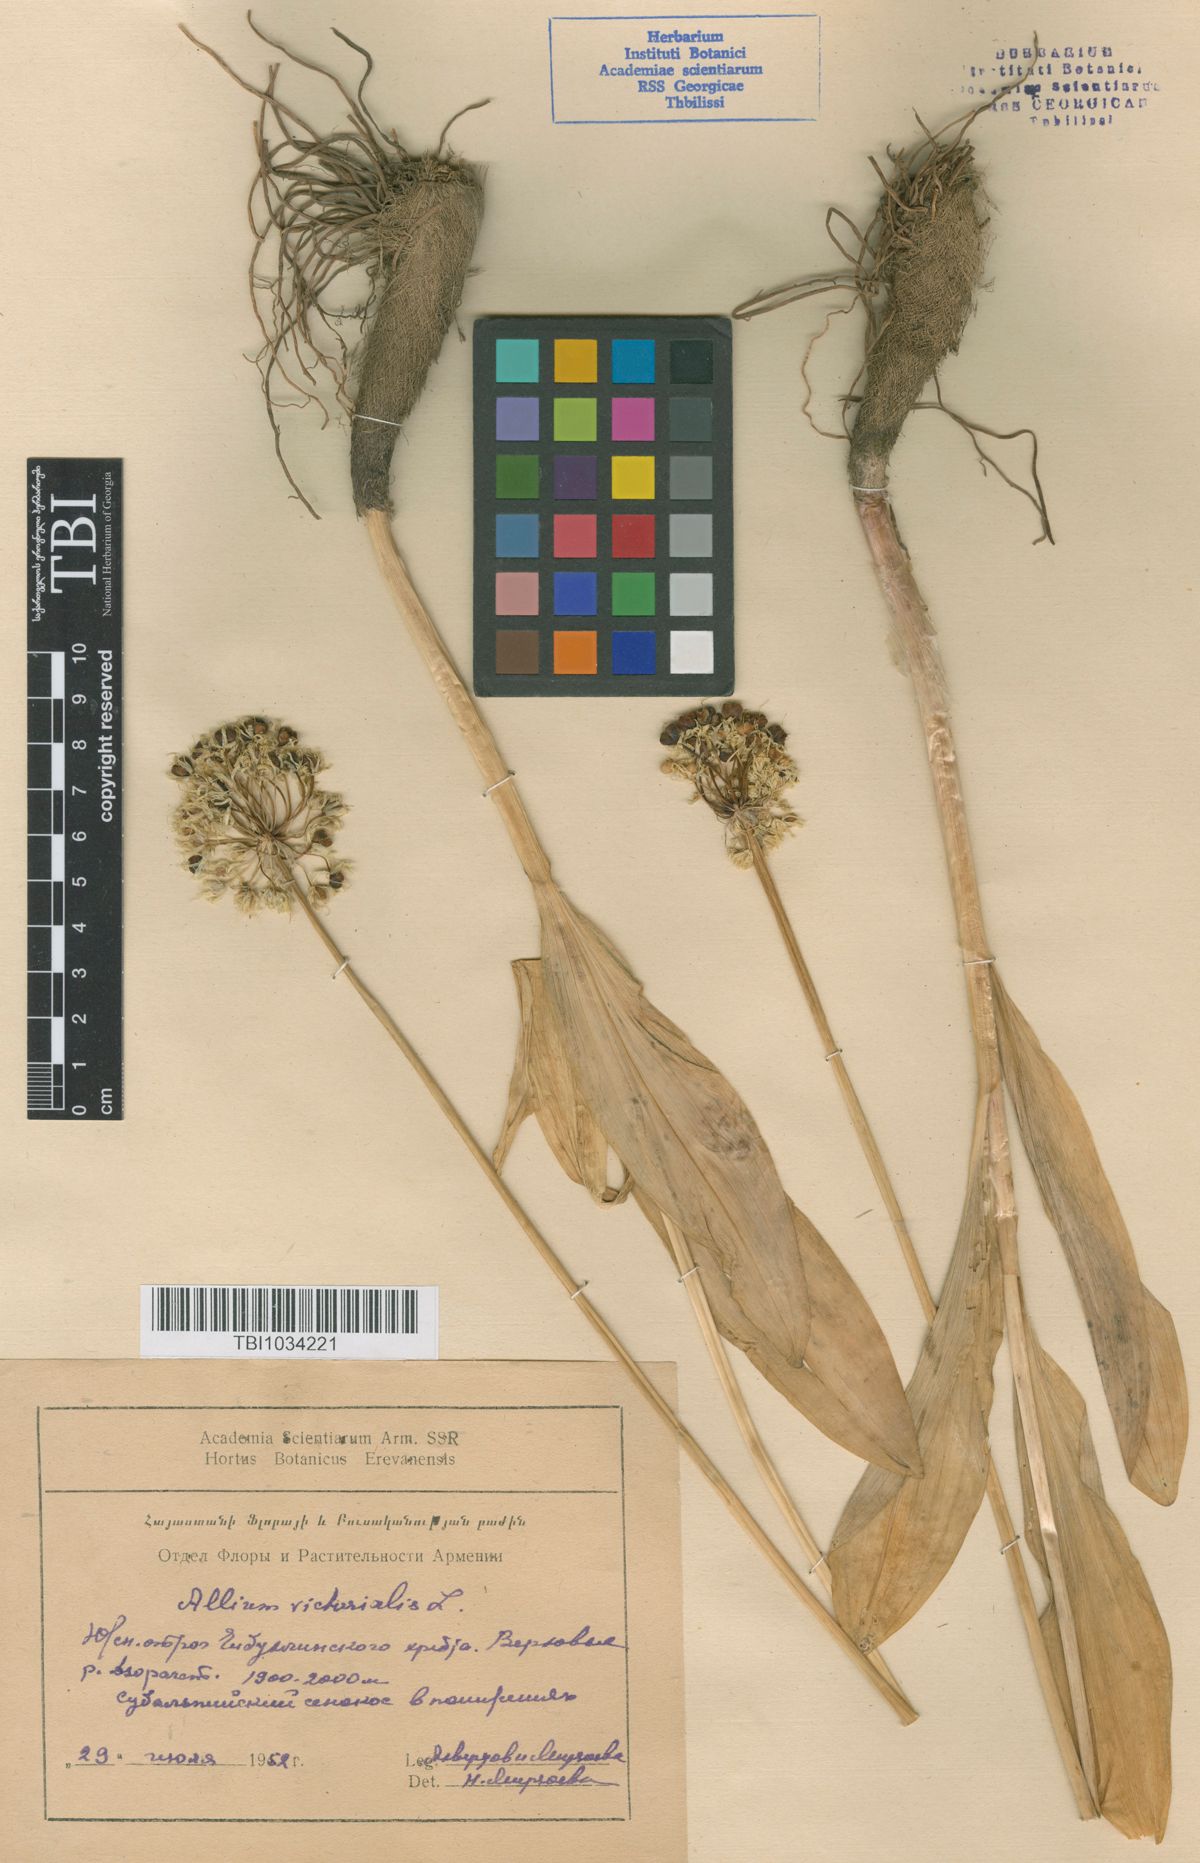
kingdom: Plantae
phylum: Tracheophyta
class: Liliopsida
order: Asparagales
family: Amaryllidaceae
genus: Allium
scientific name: Allium victorialis
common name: Alpine leek
